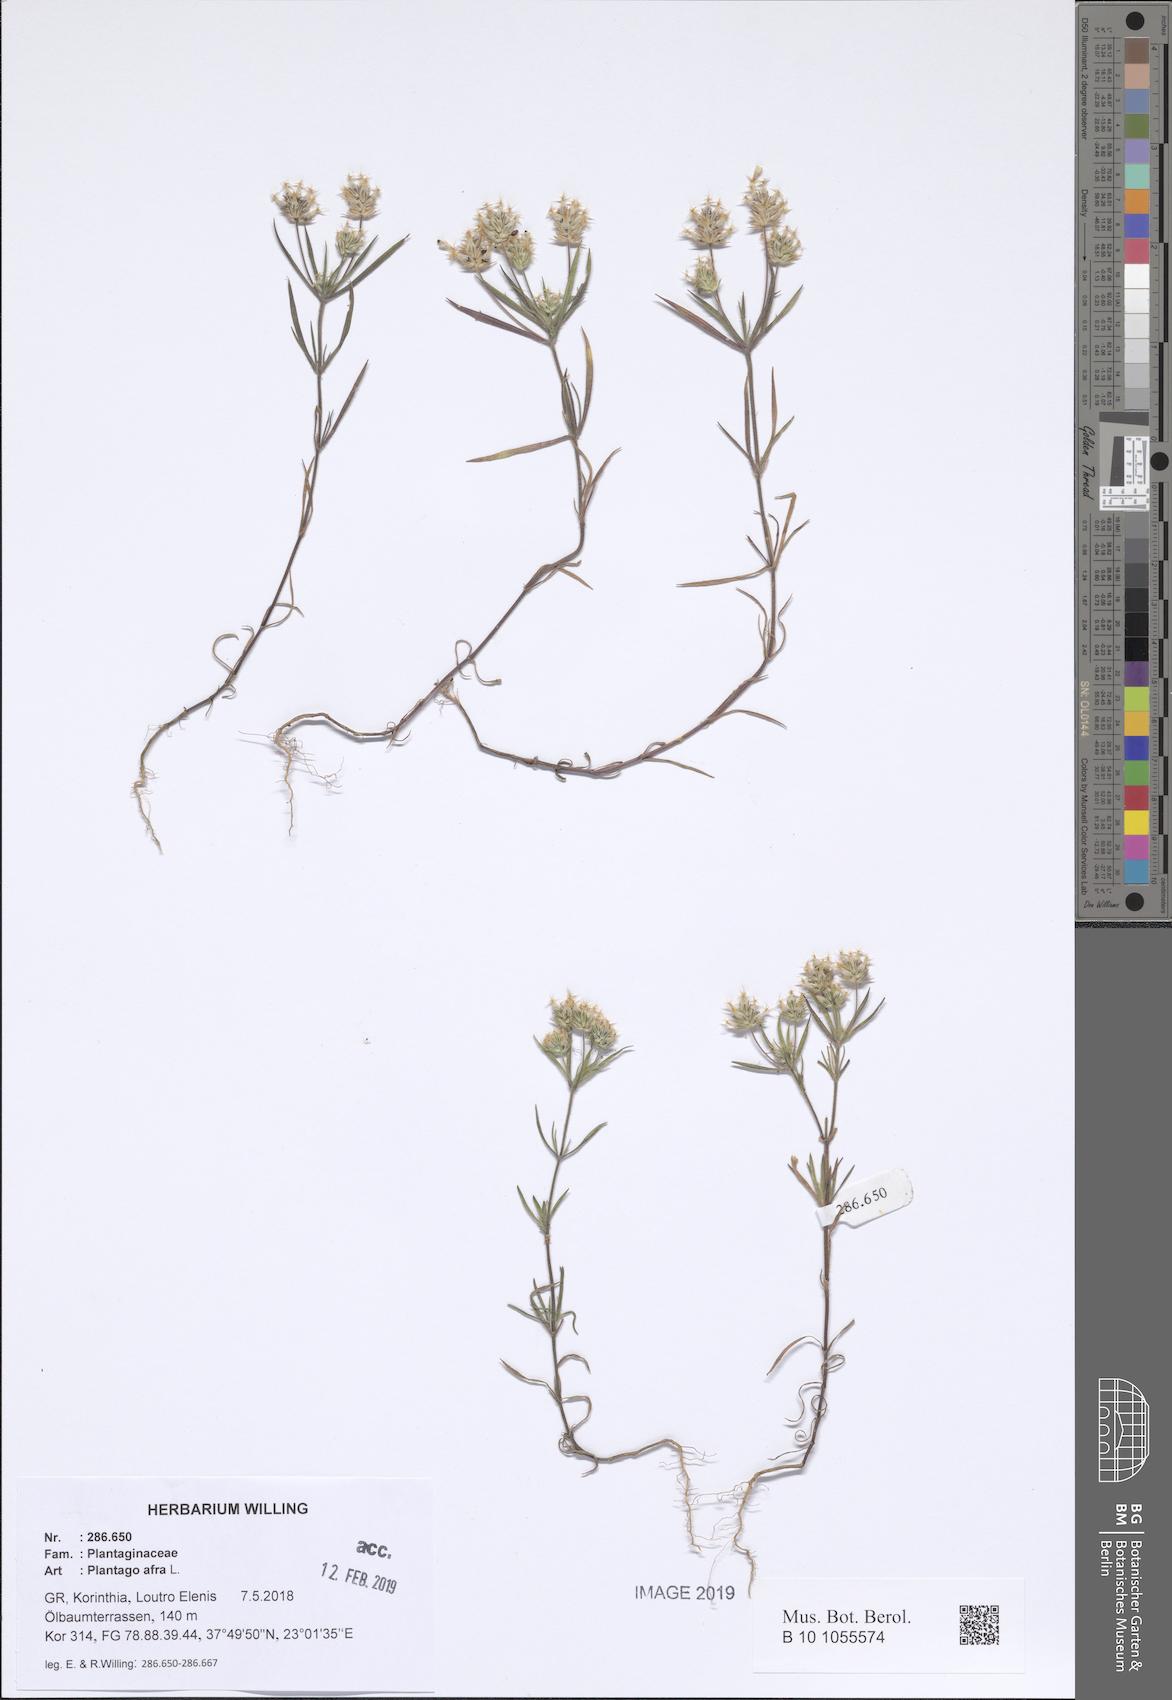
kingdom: Plantae
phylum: Tracheophyta
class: Magnoliopsida
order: Lamiales
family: Plantaginaceae
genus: Plantago
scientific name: Plantago afra
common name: Glandular plantain
